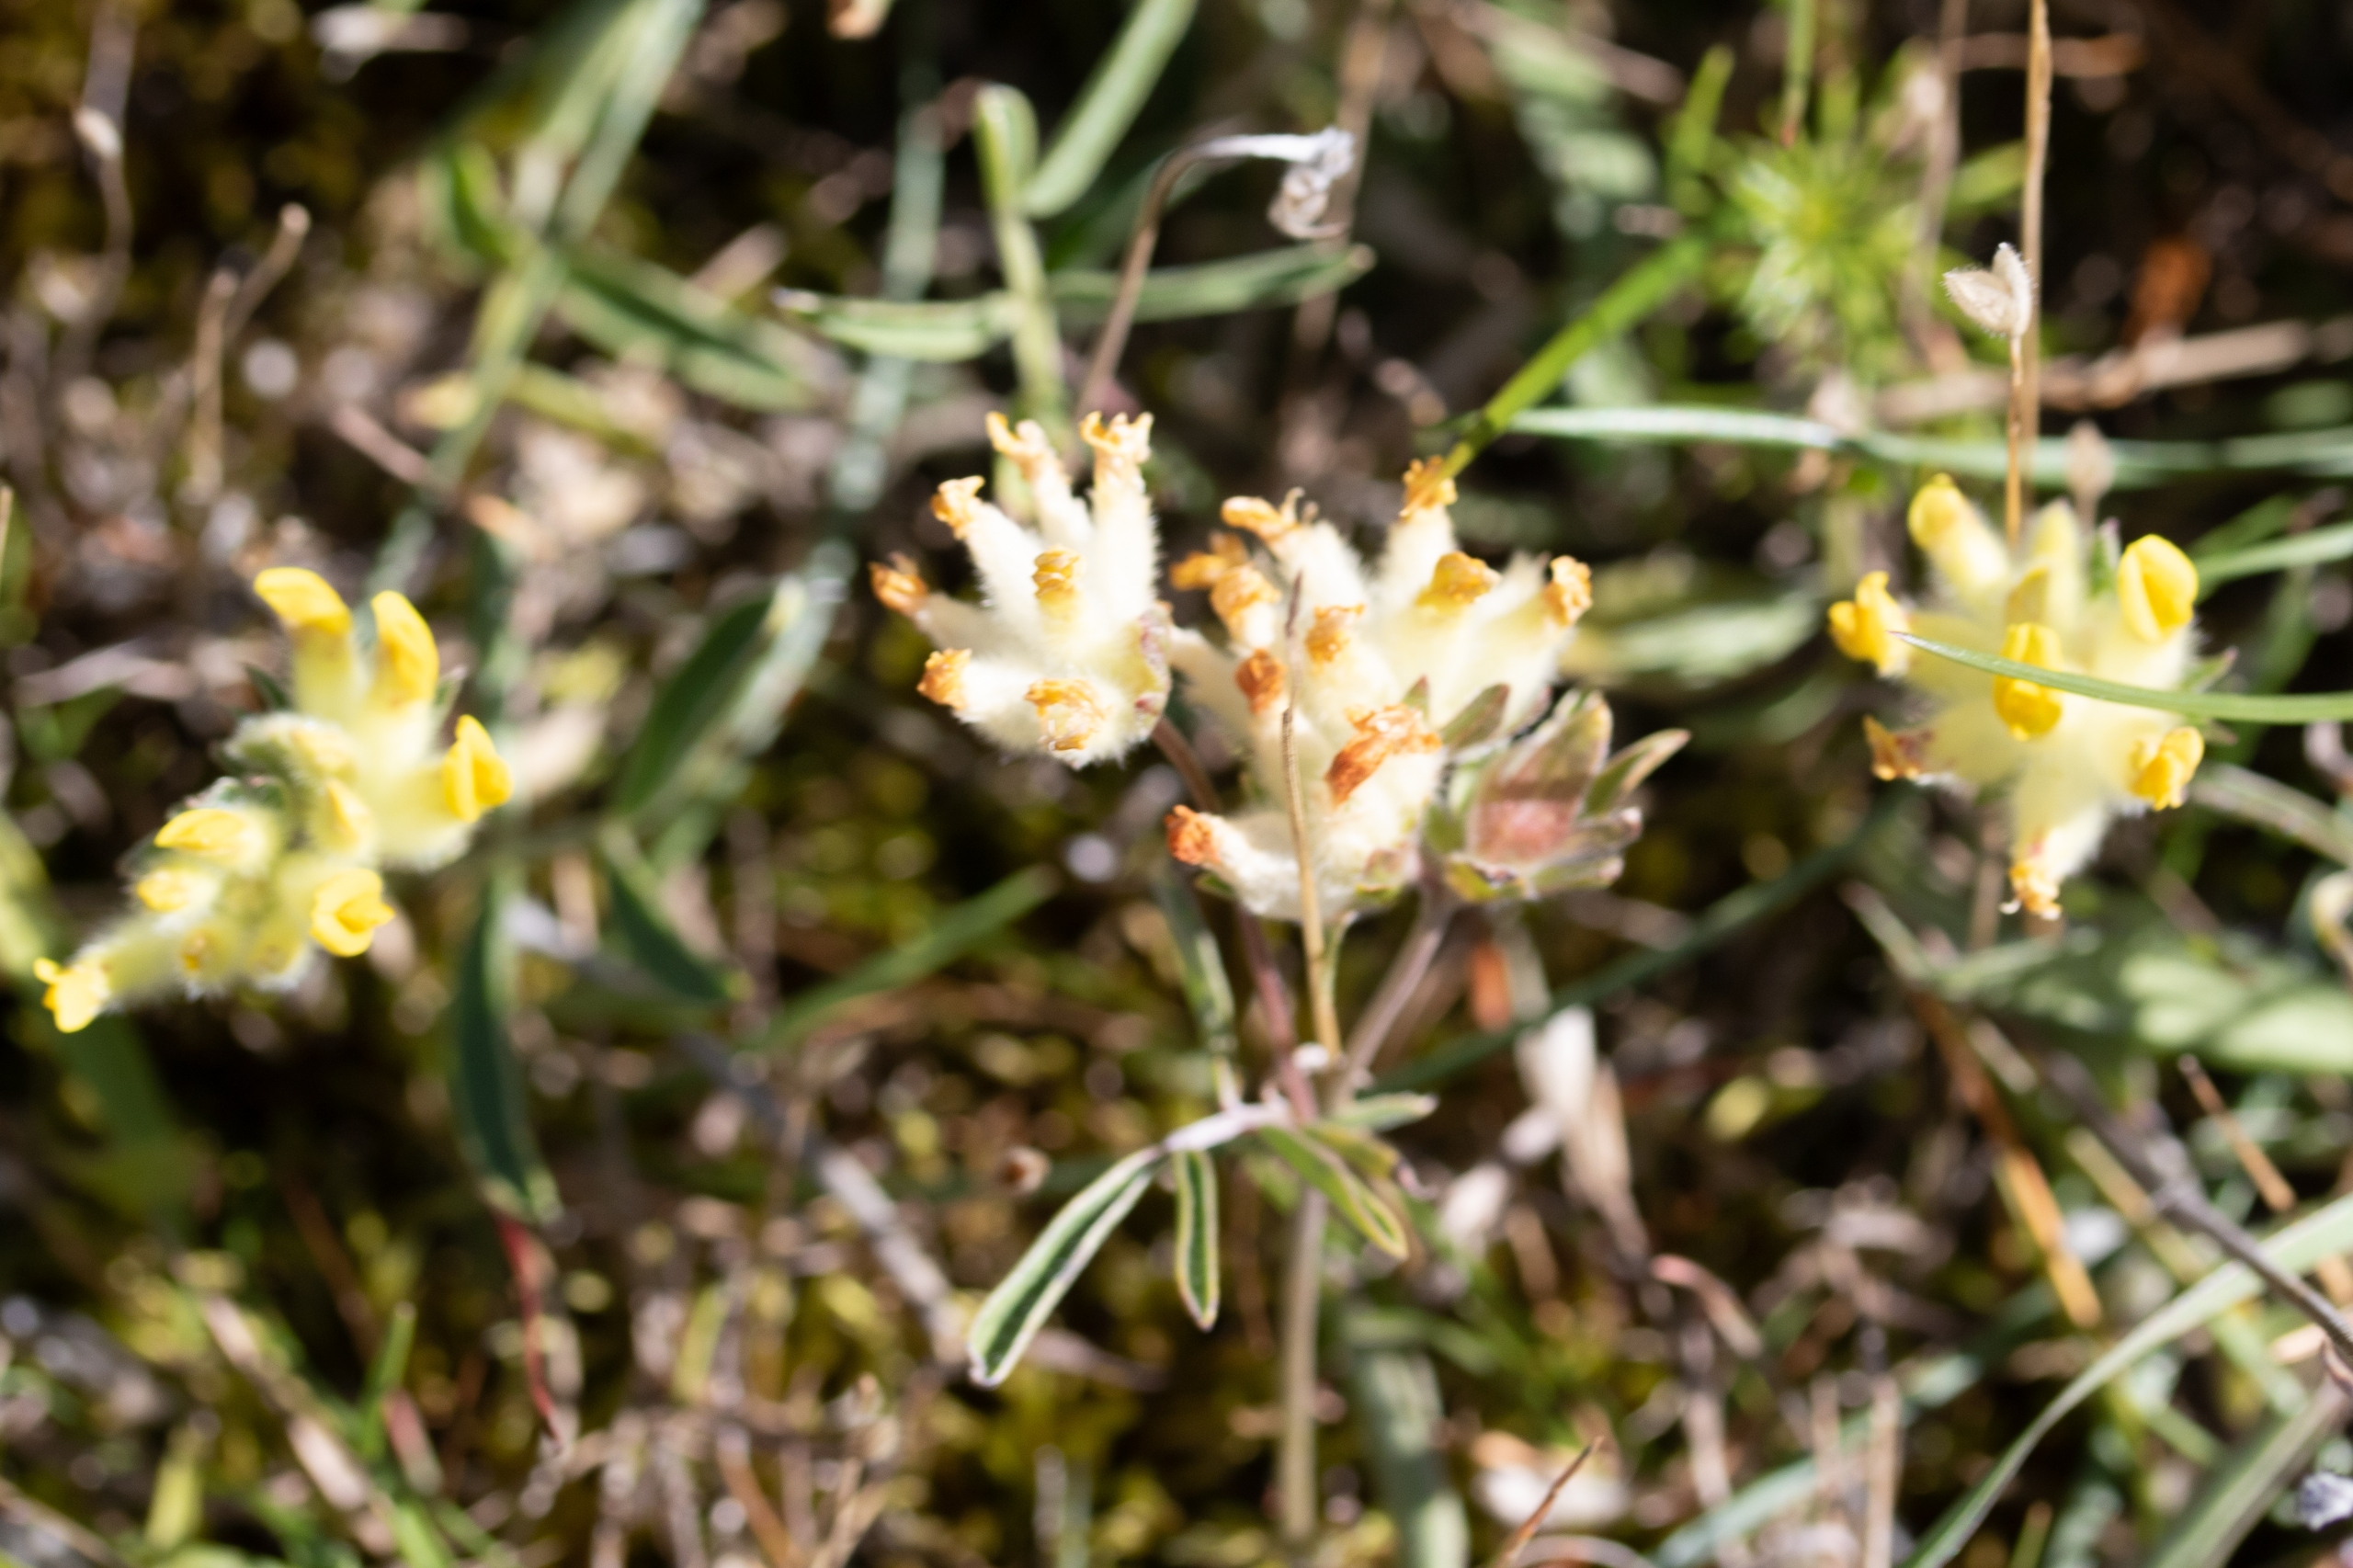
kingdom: Plantae
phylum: Tracheophyta
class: Magnoliopsida
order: Fabales
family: Fabaceae
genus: Anthyllis
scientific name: Anthyllis vulneraria
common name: Rundbælg
